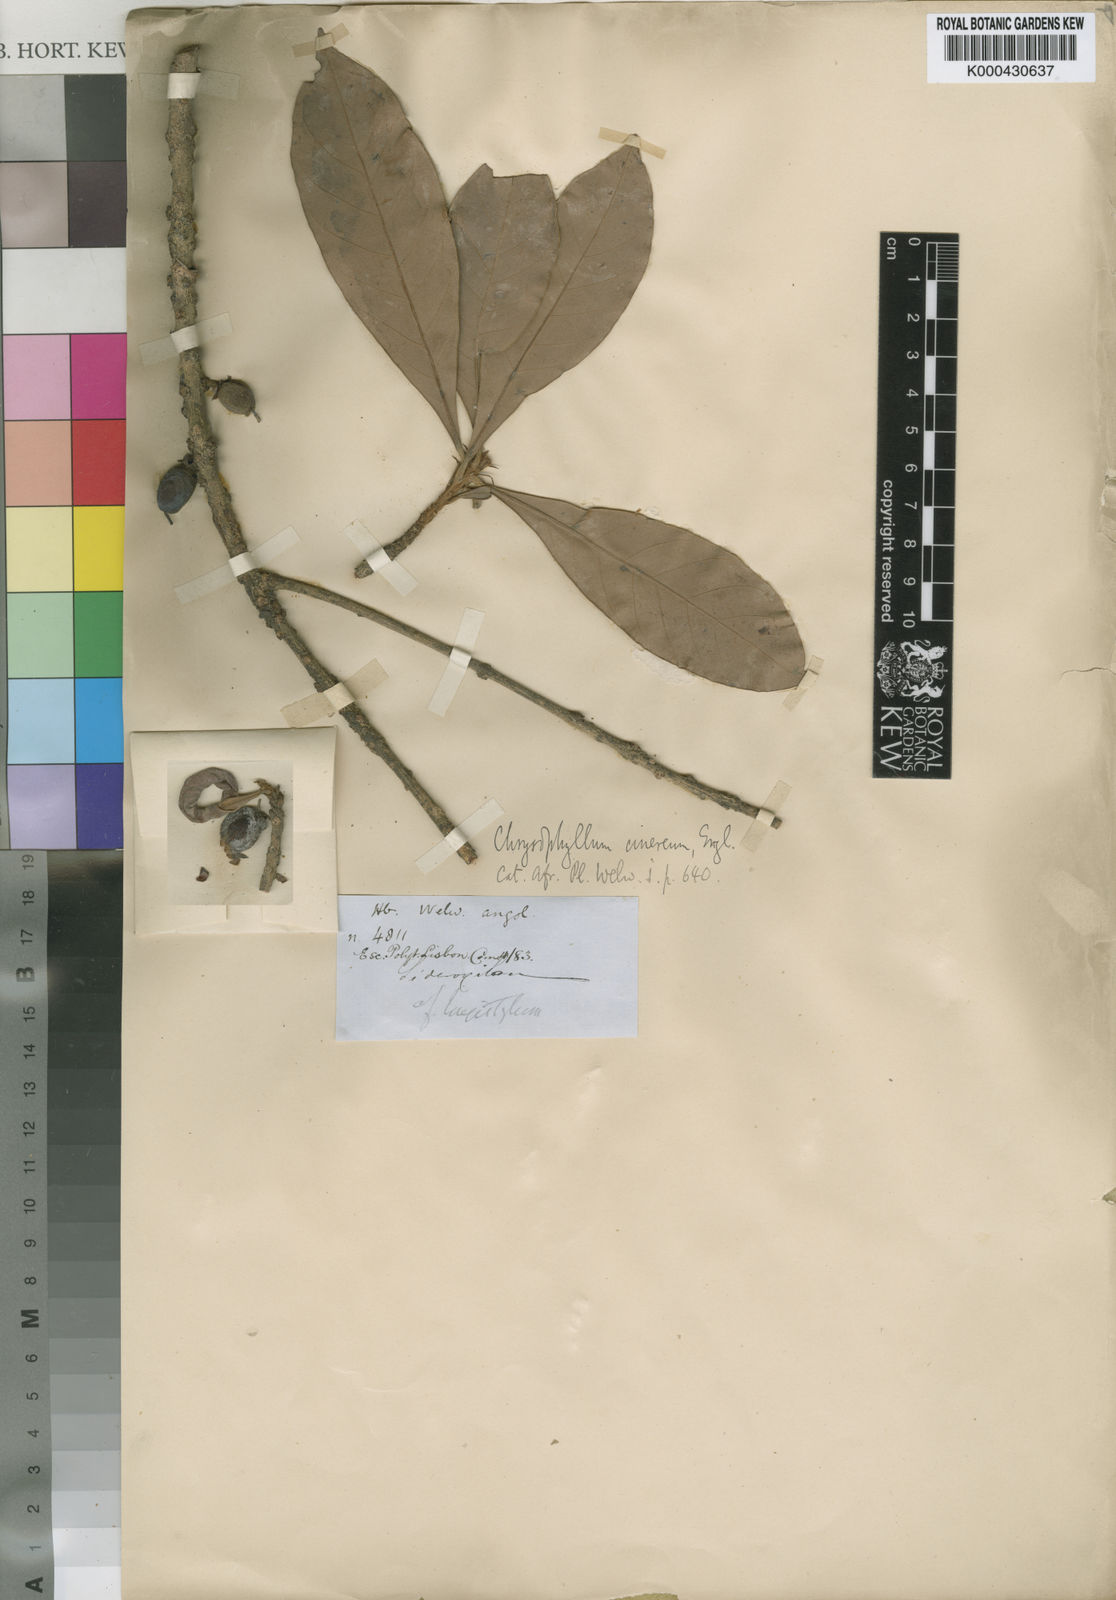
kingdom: Plantae
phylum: Tracheophyta
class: Magnoliopsida
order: Ericales
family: Sapotaceae
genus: Synsepalum
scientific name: Synsepalum brevipes
